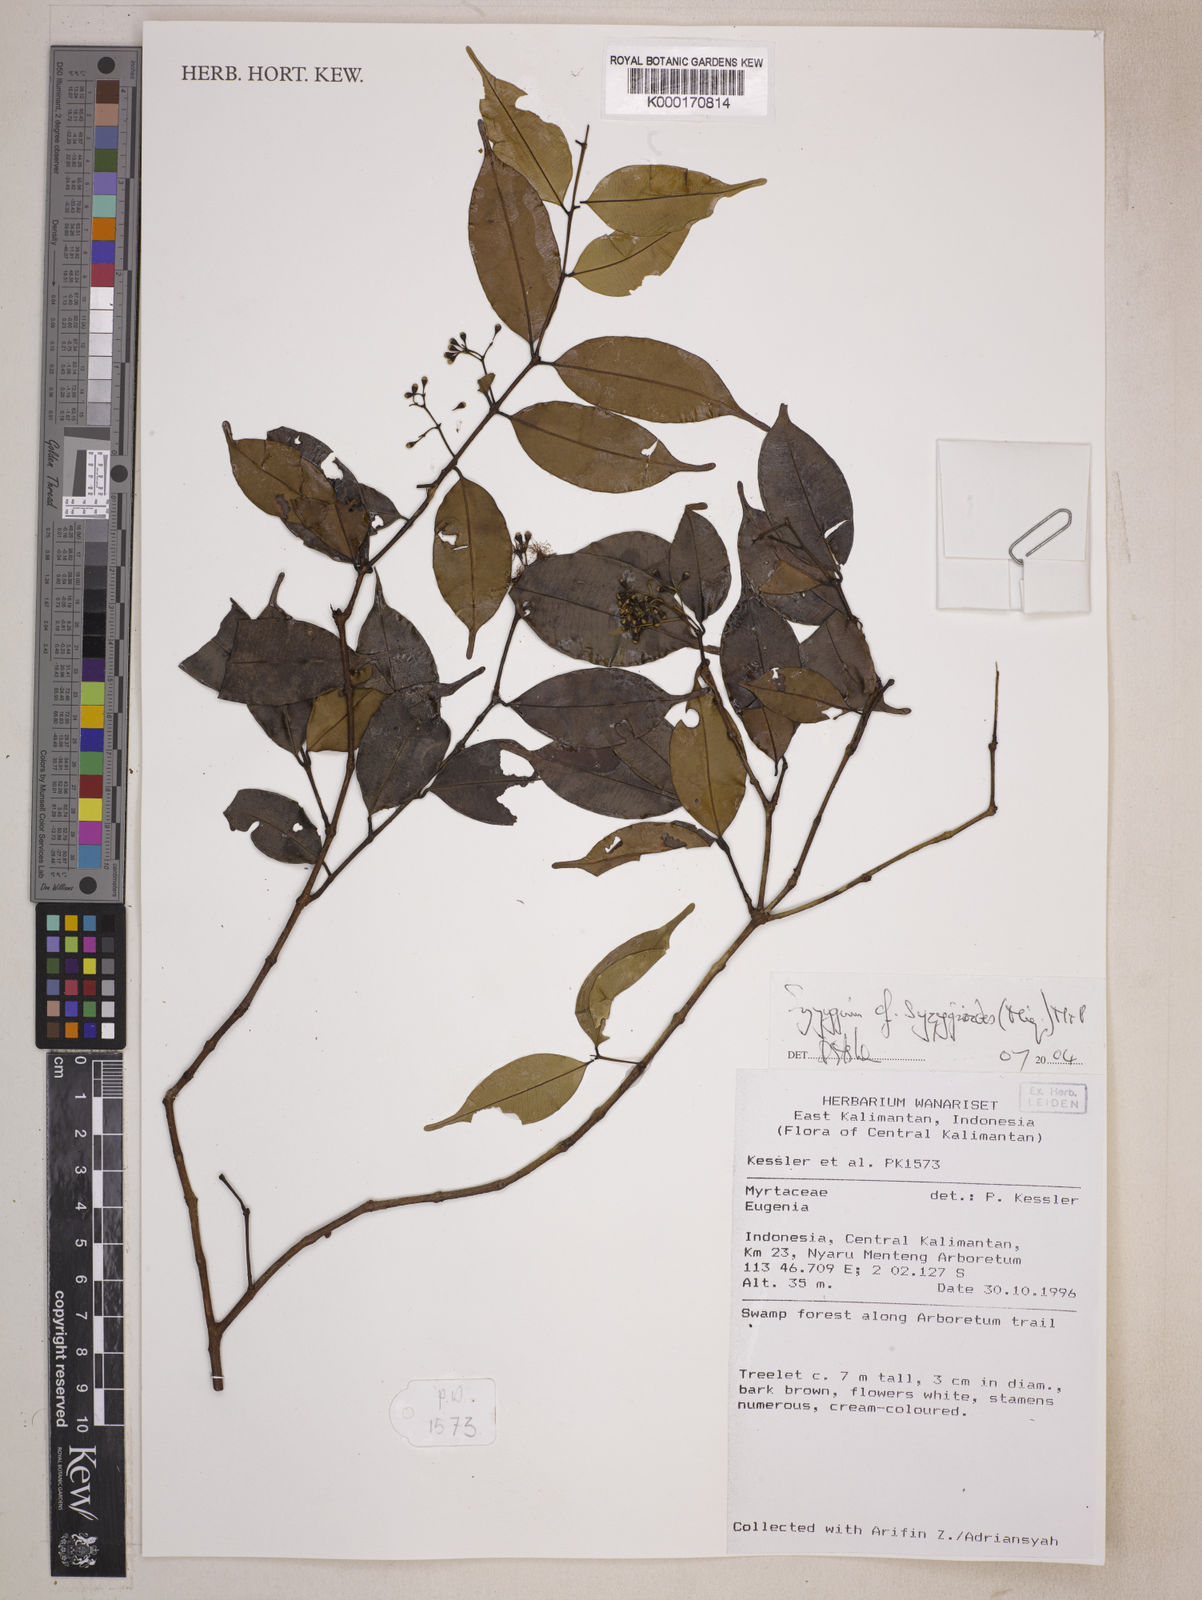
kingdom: Plantae
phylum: Tracheophyta
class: Magnoliopsida
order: Myrtales
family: Myrtaceae
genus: Syzygium
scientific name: Syzygium syzygioides
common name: Myrtle
